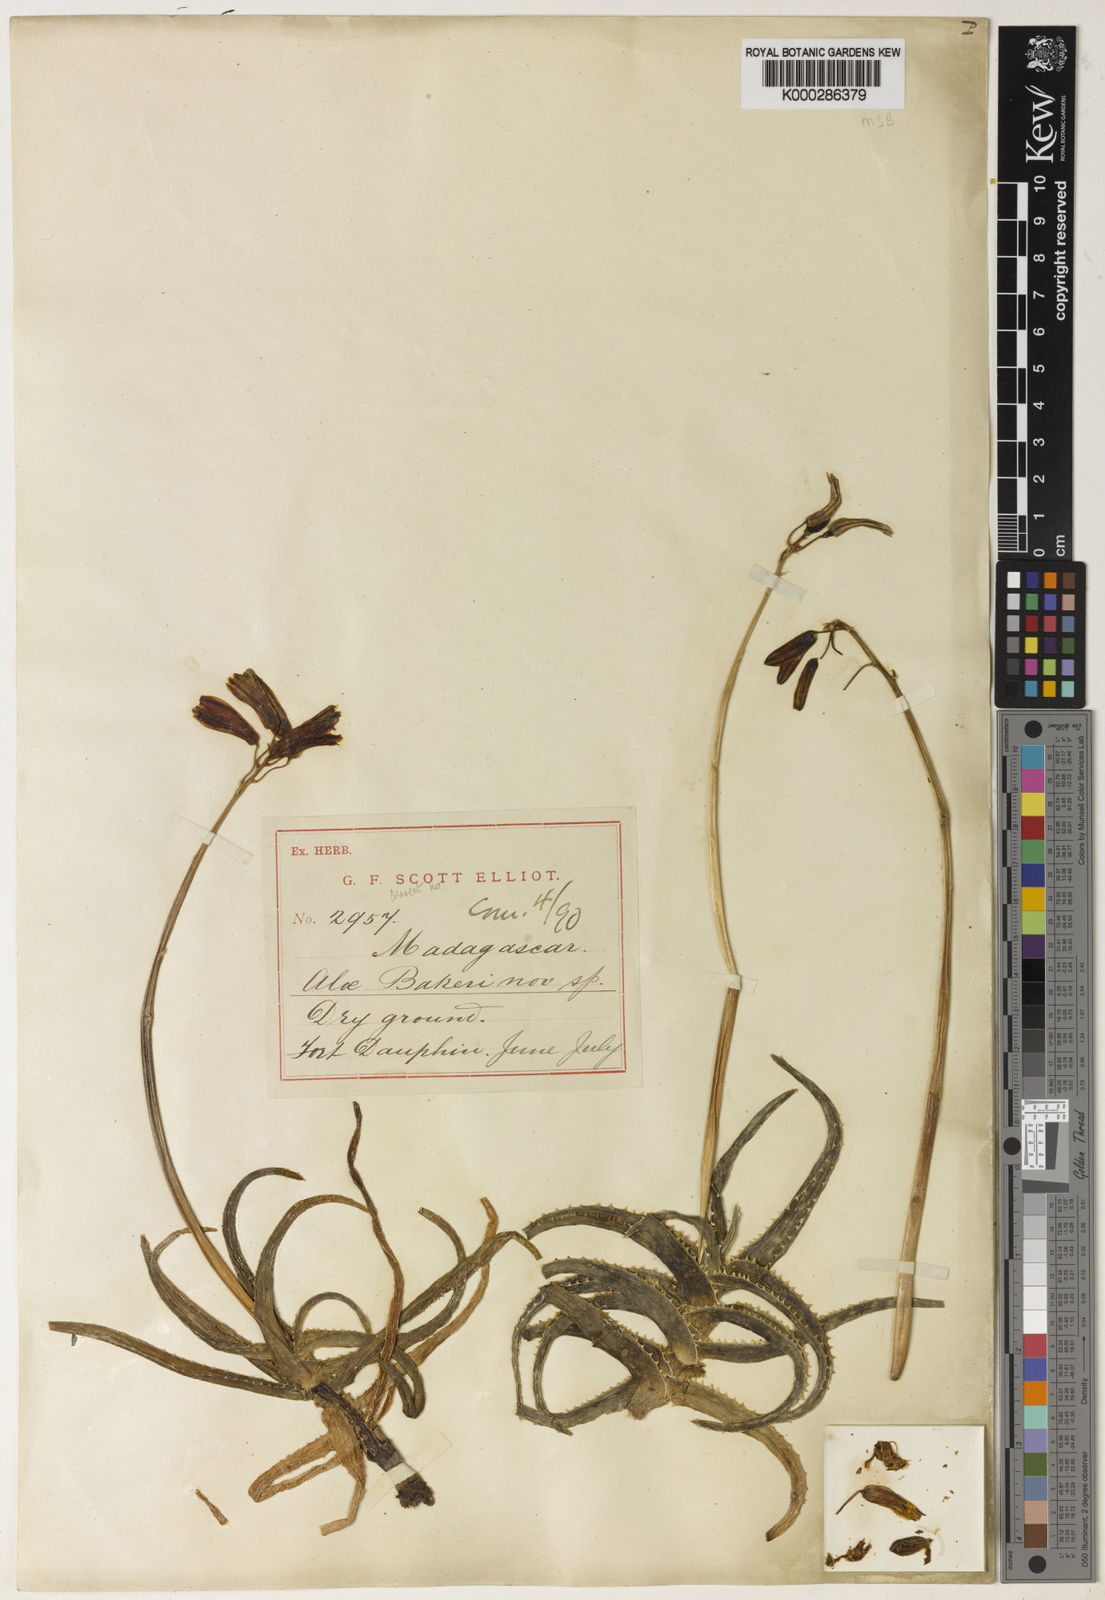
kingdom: Plantae
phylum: Tracheophyta
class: Liliopsida
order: Asparagales
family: Asphodelaceae
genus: Aloe
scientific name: Aloe bakeri
